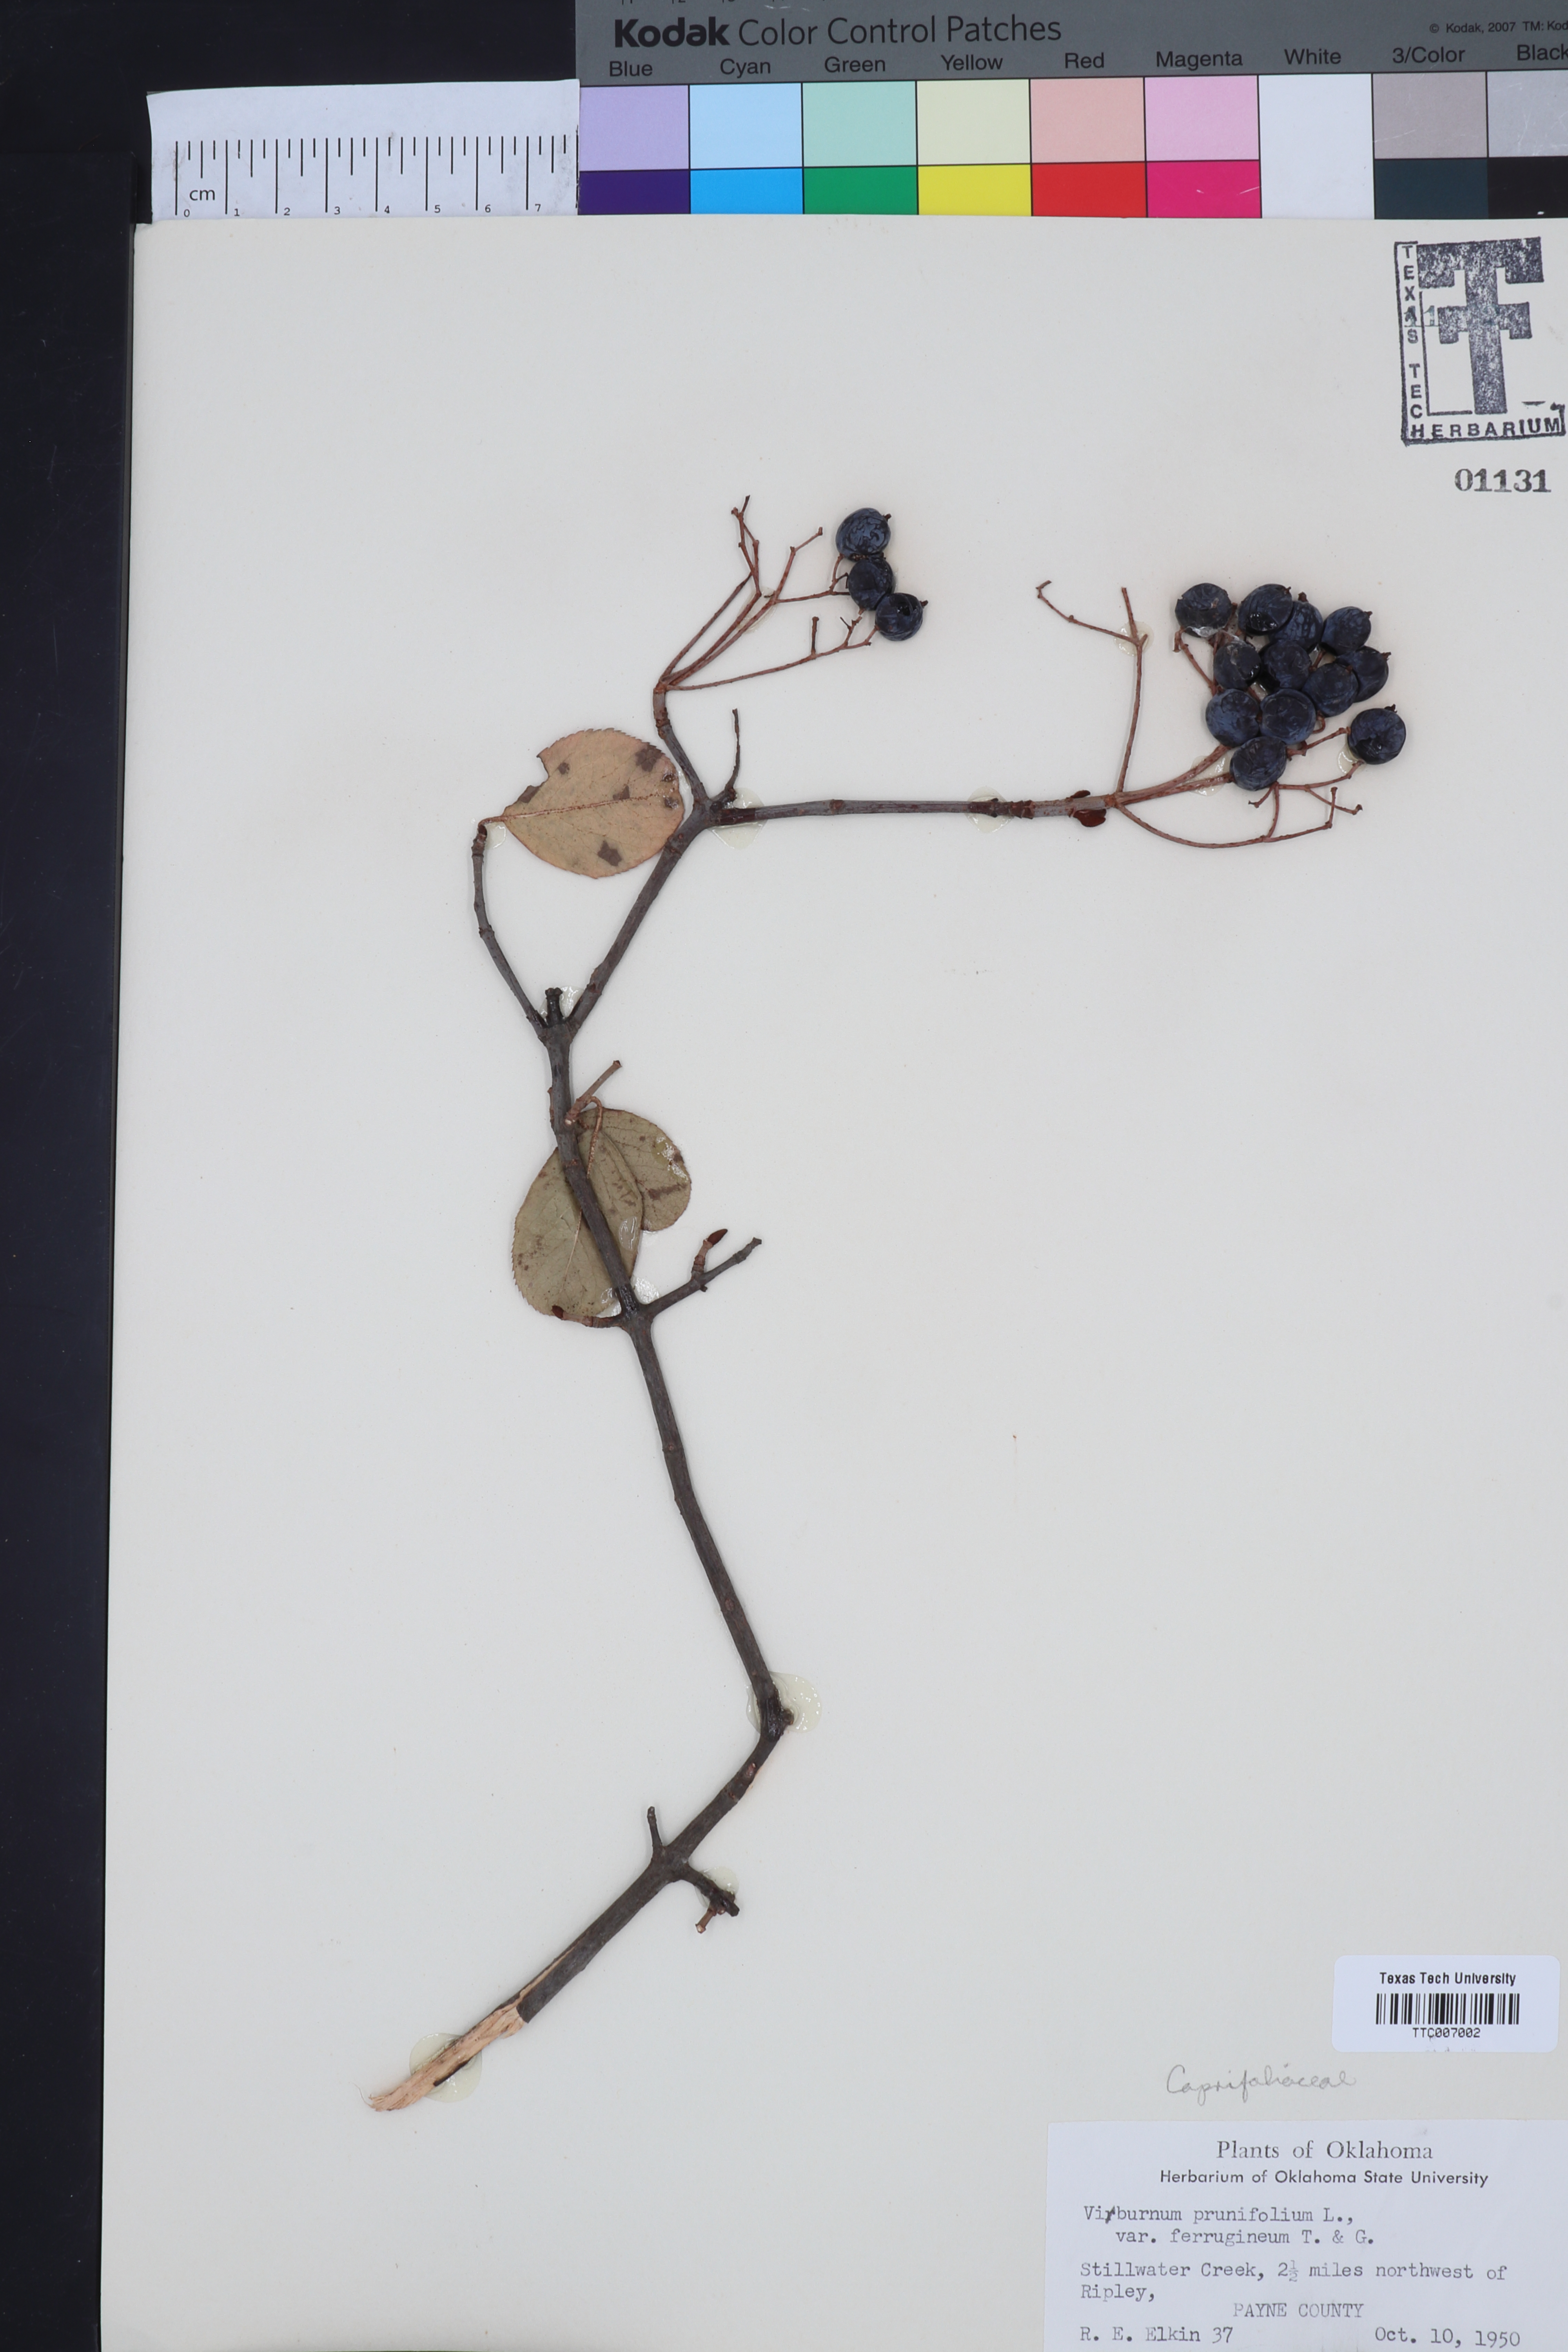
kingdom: Plantae
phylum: Tracheophyta
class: Magnoliopsida
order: Dipsacales
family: Viburnaceae
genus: Viburnum
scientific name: Viburnum rufidulum
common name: Blue haw
